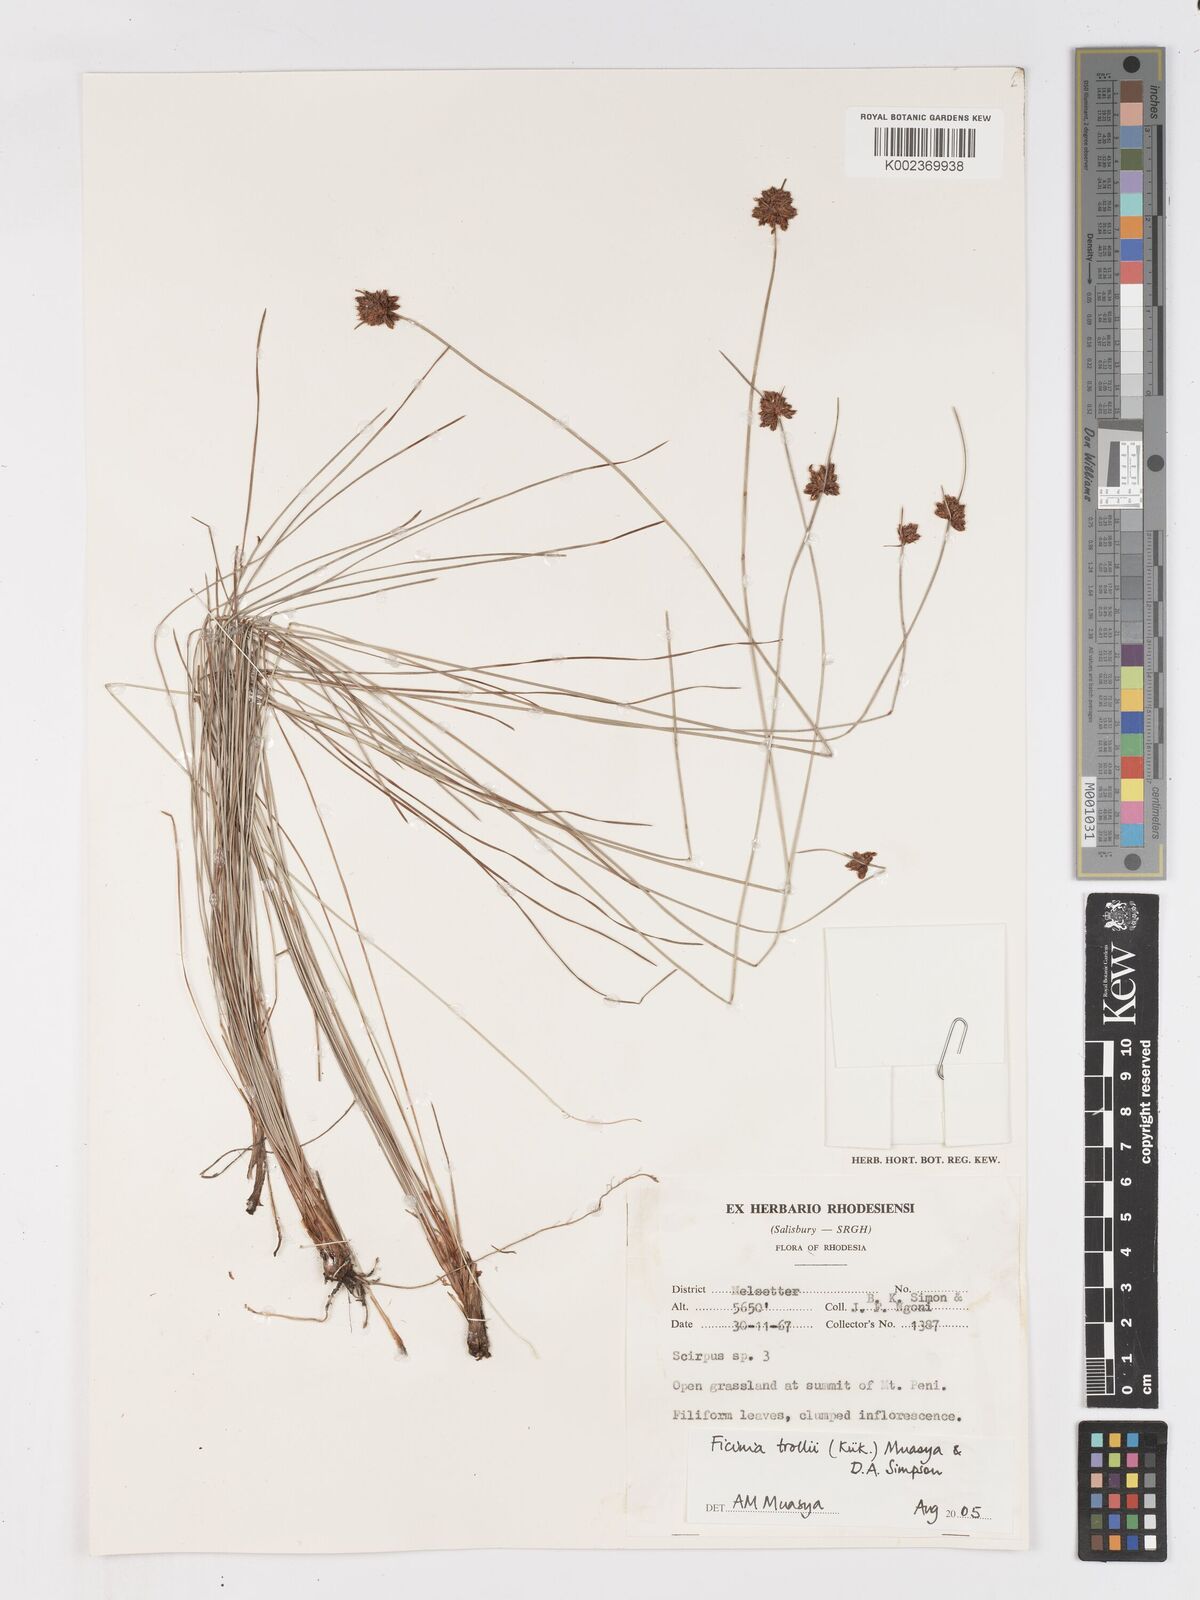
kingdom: Plantae
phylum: Tracheophyta
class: Liliopsida
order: Poales
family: Cyperaceae
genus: Ficinia
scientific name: Ficinia trollii
